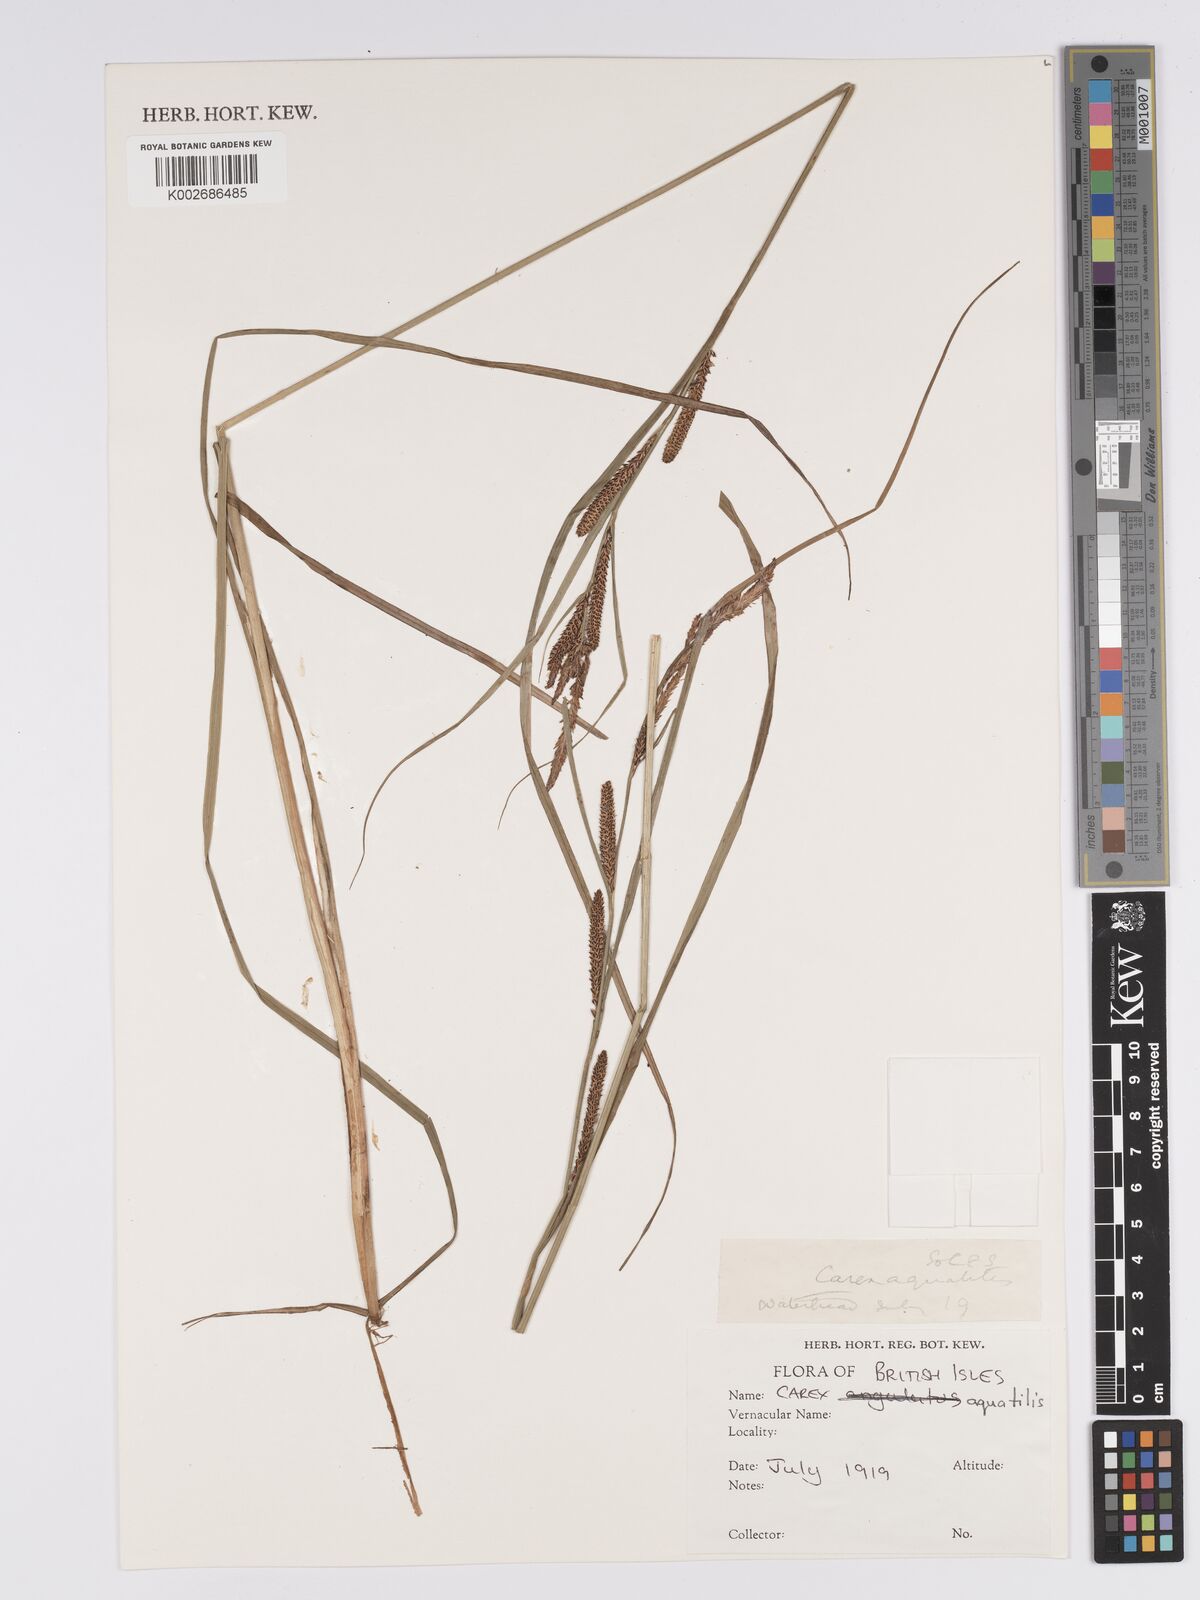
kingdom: Plantae
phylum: Tracheophyta
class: Liliopsida
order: Poales
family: Cyperaceae
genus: Carex
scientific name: Carex microcarpa
